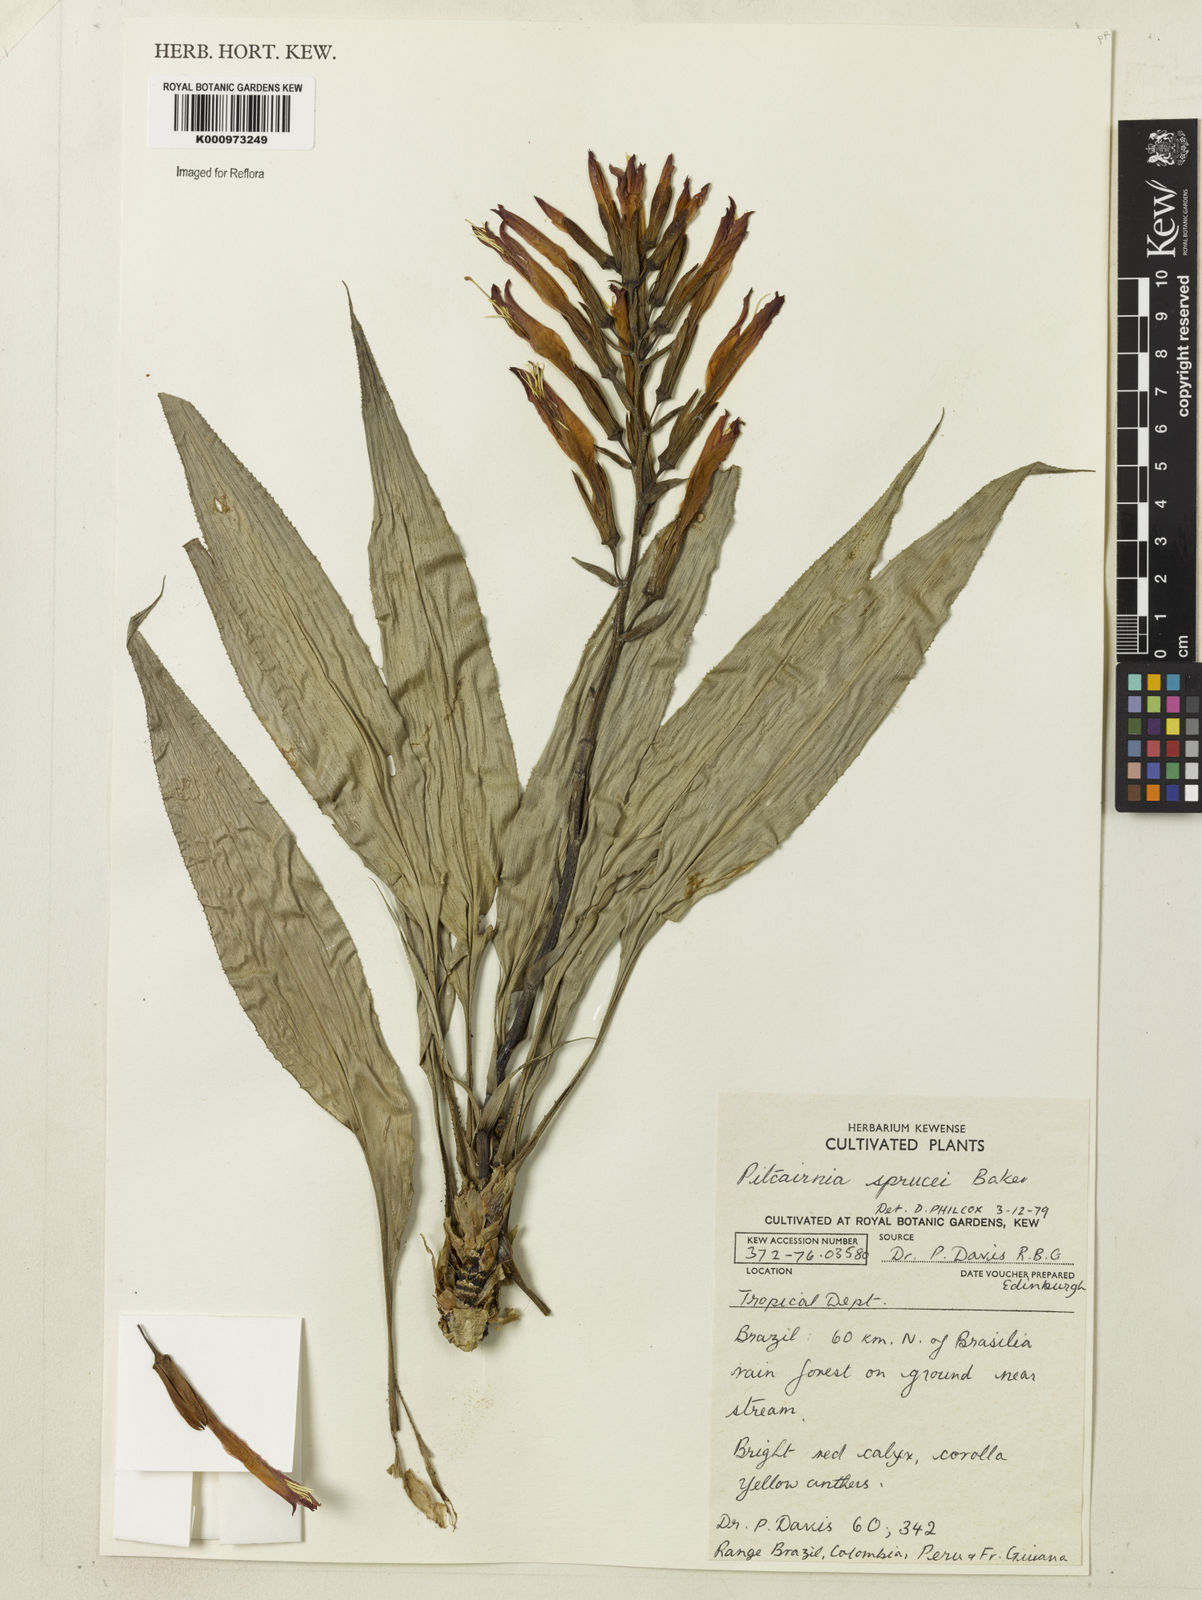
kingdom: Plantae
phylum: Tracheophyta
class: Liliopsida
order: Poales
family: Bromeliaceae
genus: Pitcairnia
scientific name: Pitcairnia sprucei
